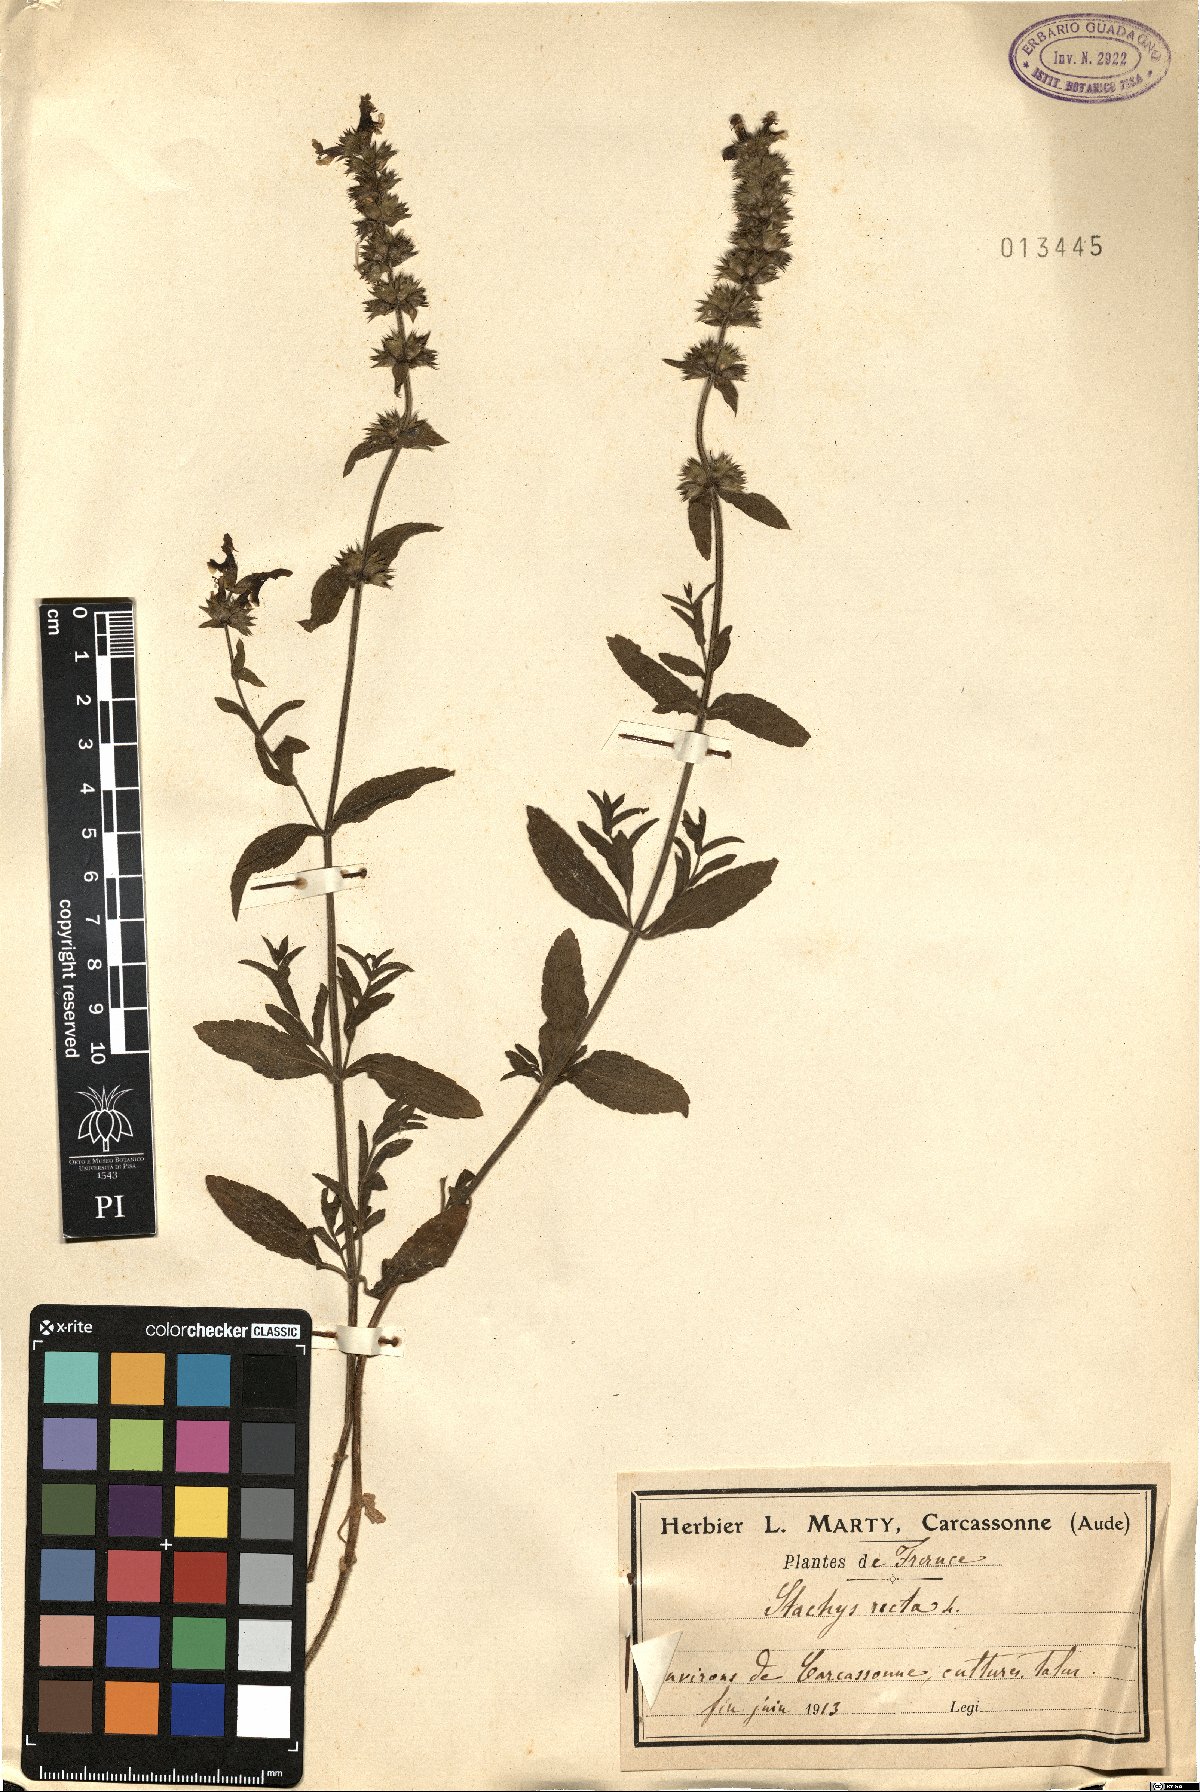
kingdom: Plantae
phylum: Tracheophyta
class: Magnoliopsida
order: Lamiales
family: Lamiaceae
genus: Stachys
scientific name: Stachys recta
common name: Perennial yellow-woundwort
